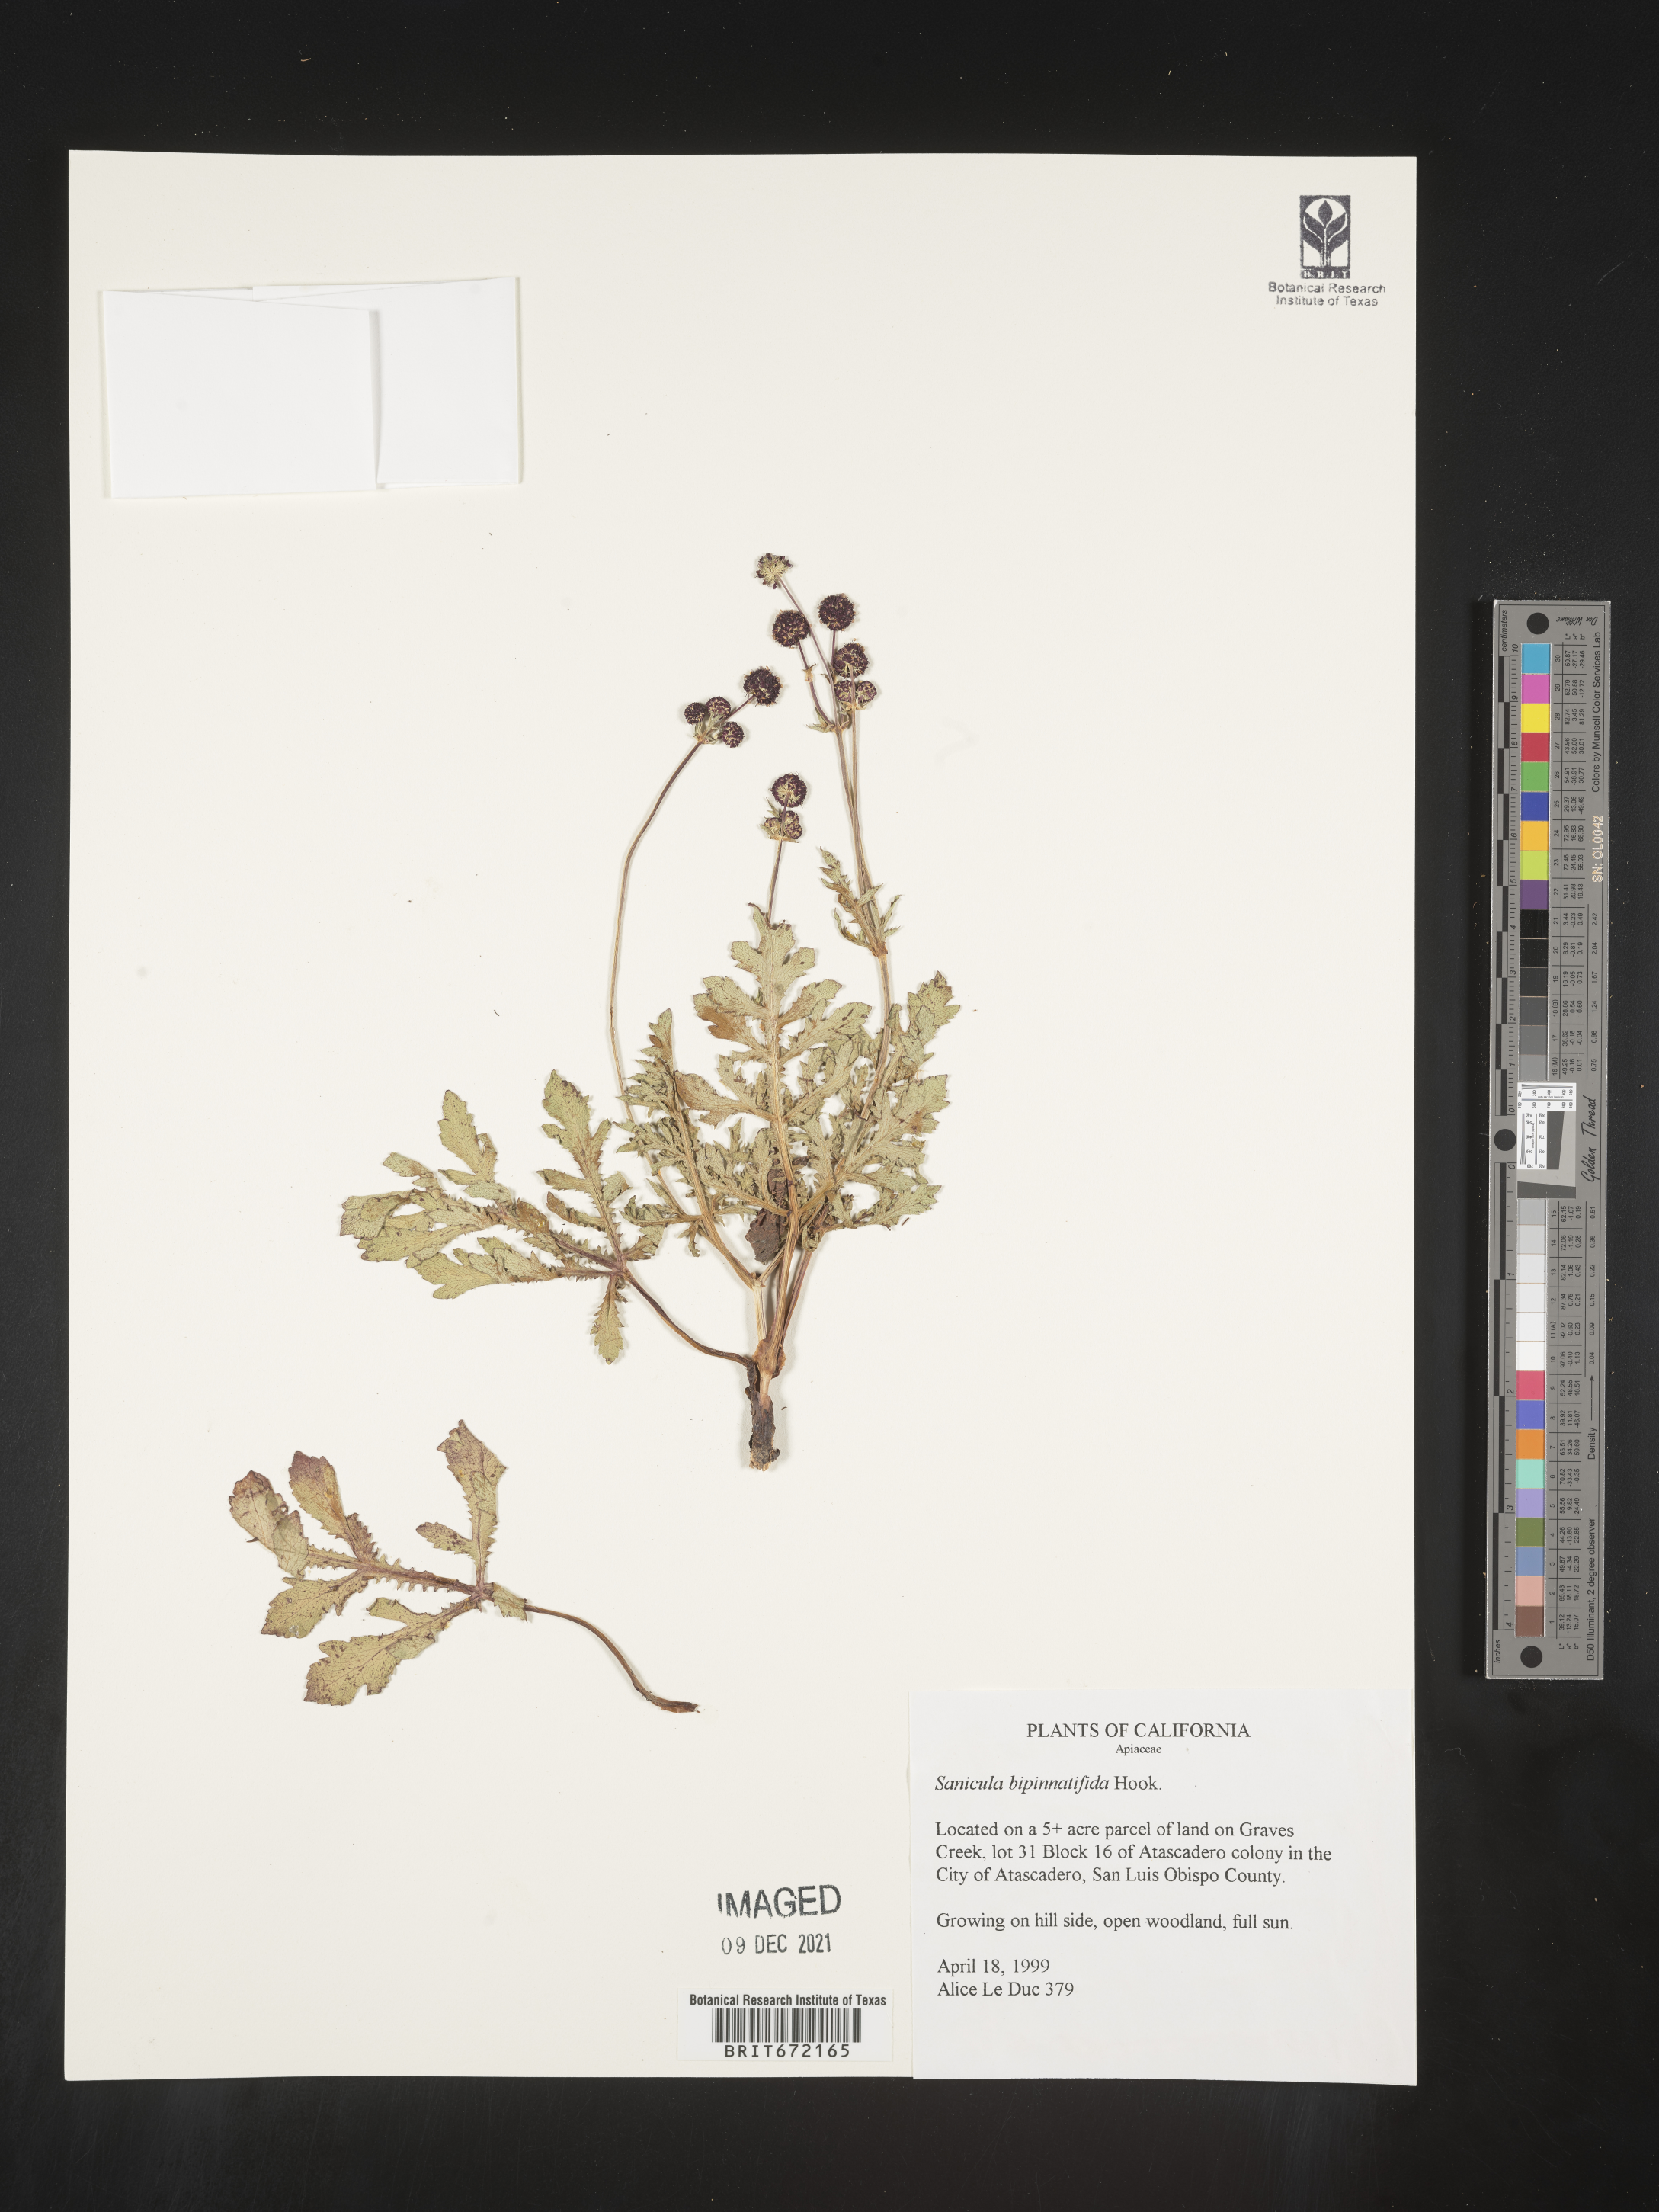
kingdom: Plantae
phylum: Tracheophyta
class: Magnoliopsida
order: Apiales
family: Apiaceae
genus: Sanicula
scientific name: Sanicula
